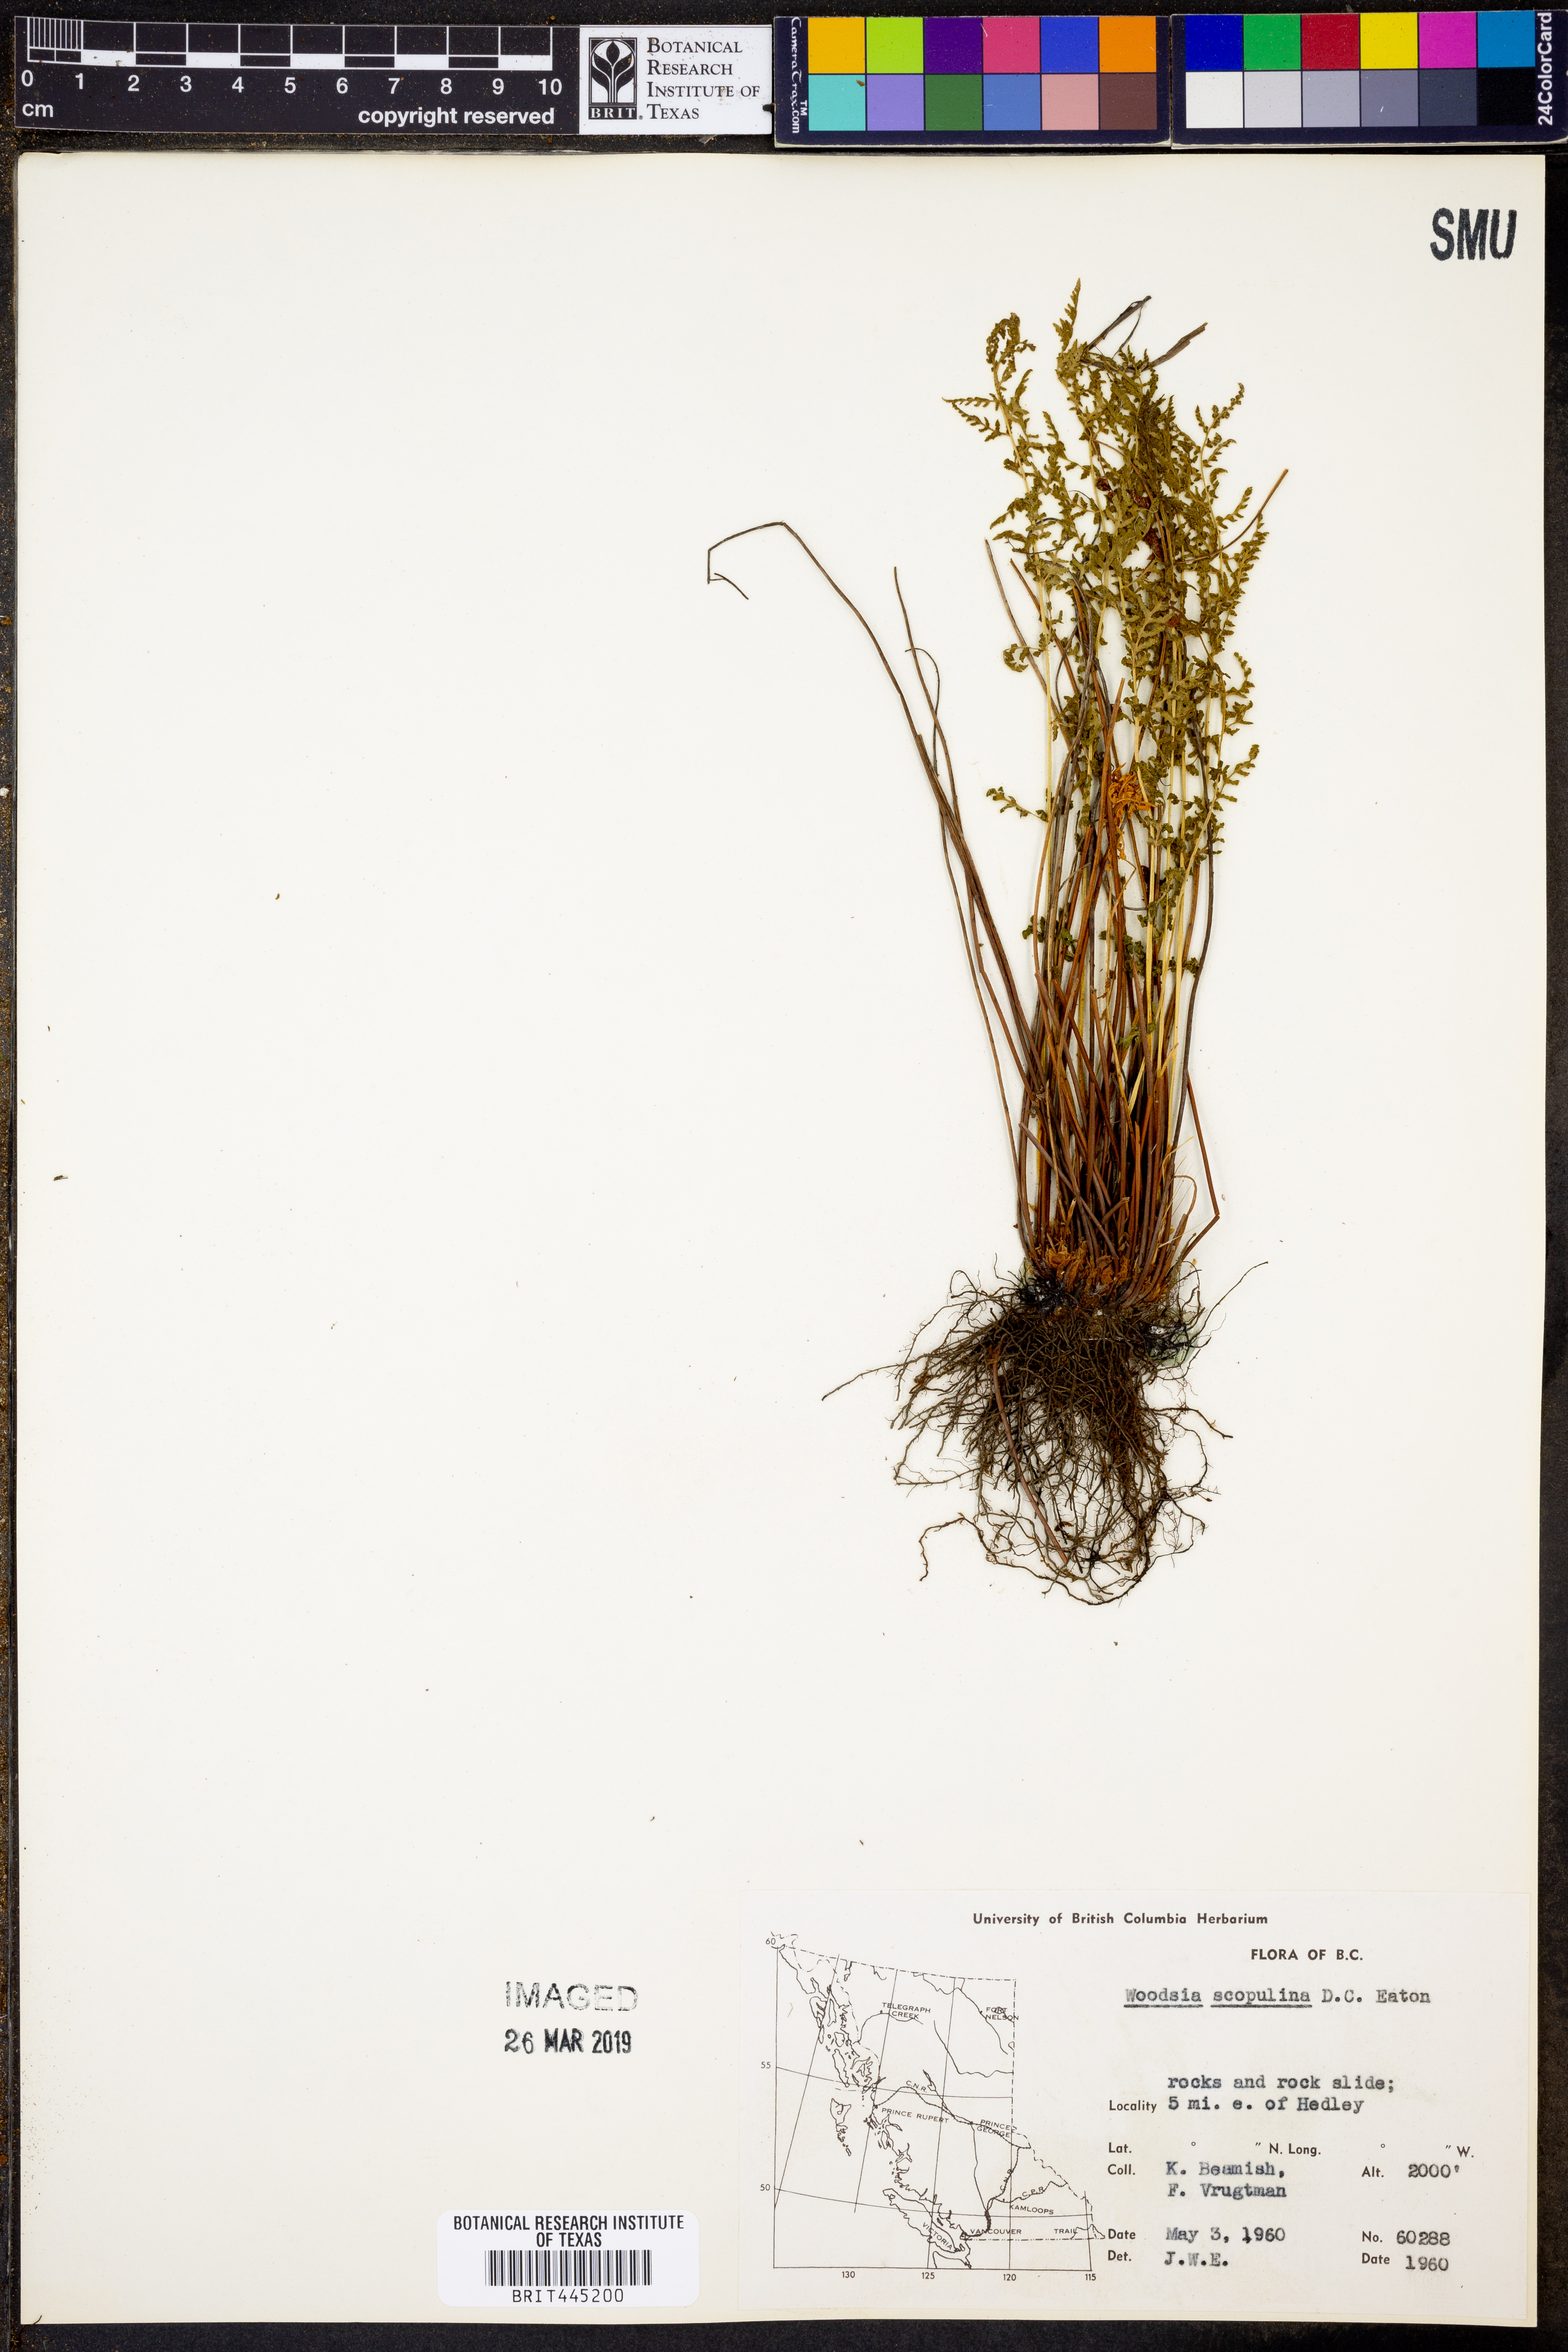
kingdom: Plantae
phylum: Tracheophyta
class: Polypodiopsida
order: Polypodiales
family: Woodsiaceae
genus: Physematium
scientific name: Physematium scopulinum
